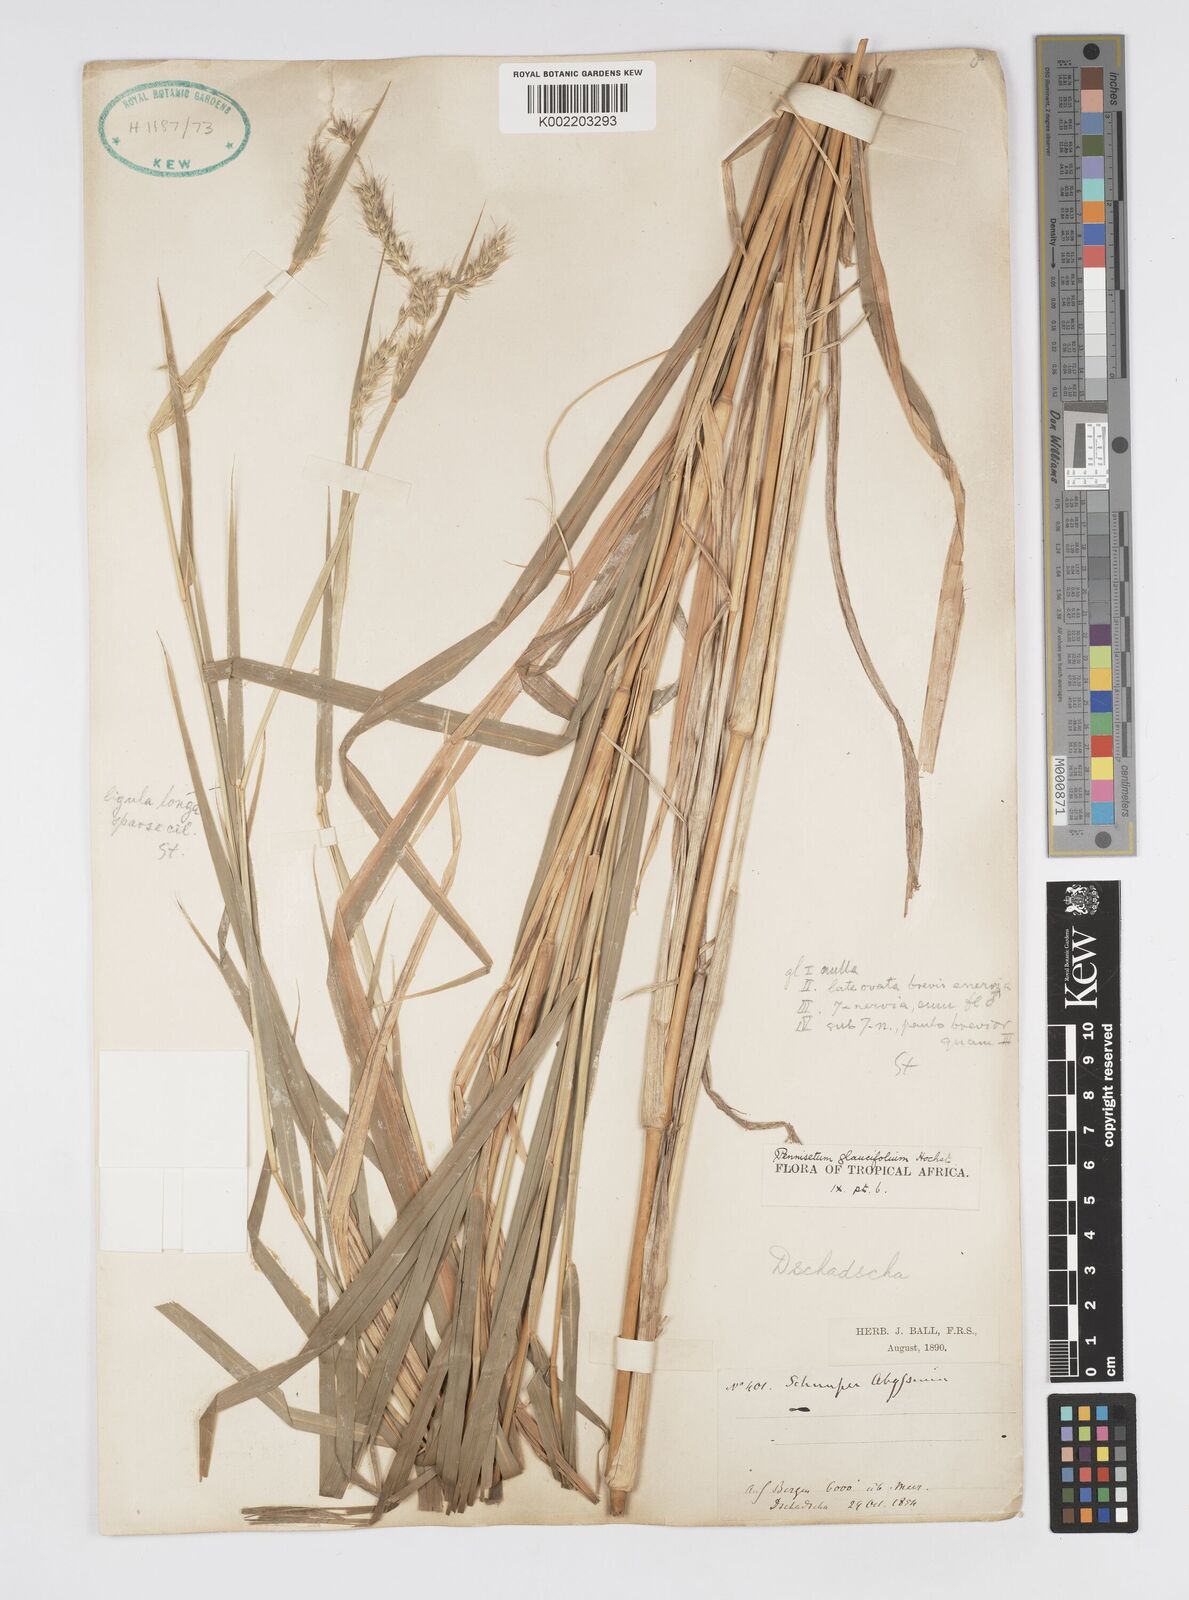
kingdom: Plantae
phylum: Tracheophyta
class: Liliopsida
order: Poales
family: Poaceae
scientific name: Poaceae
